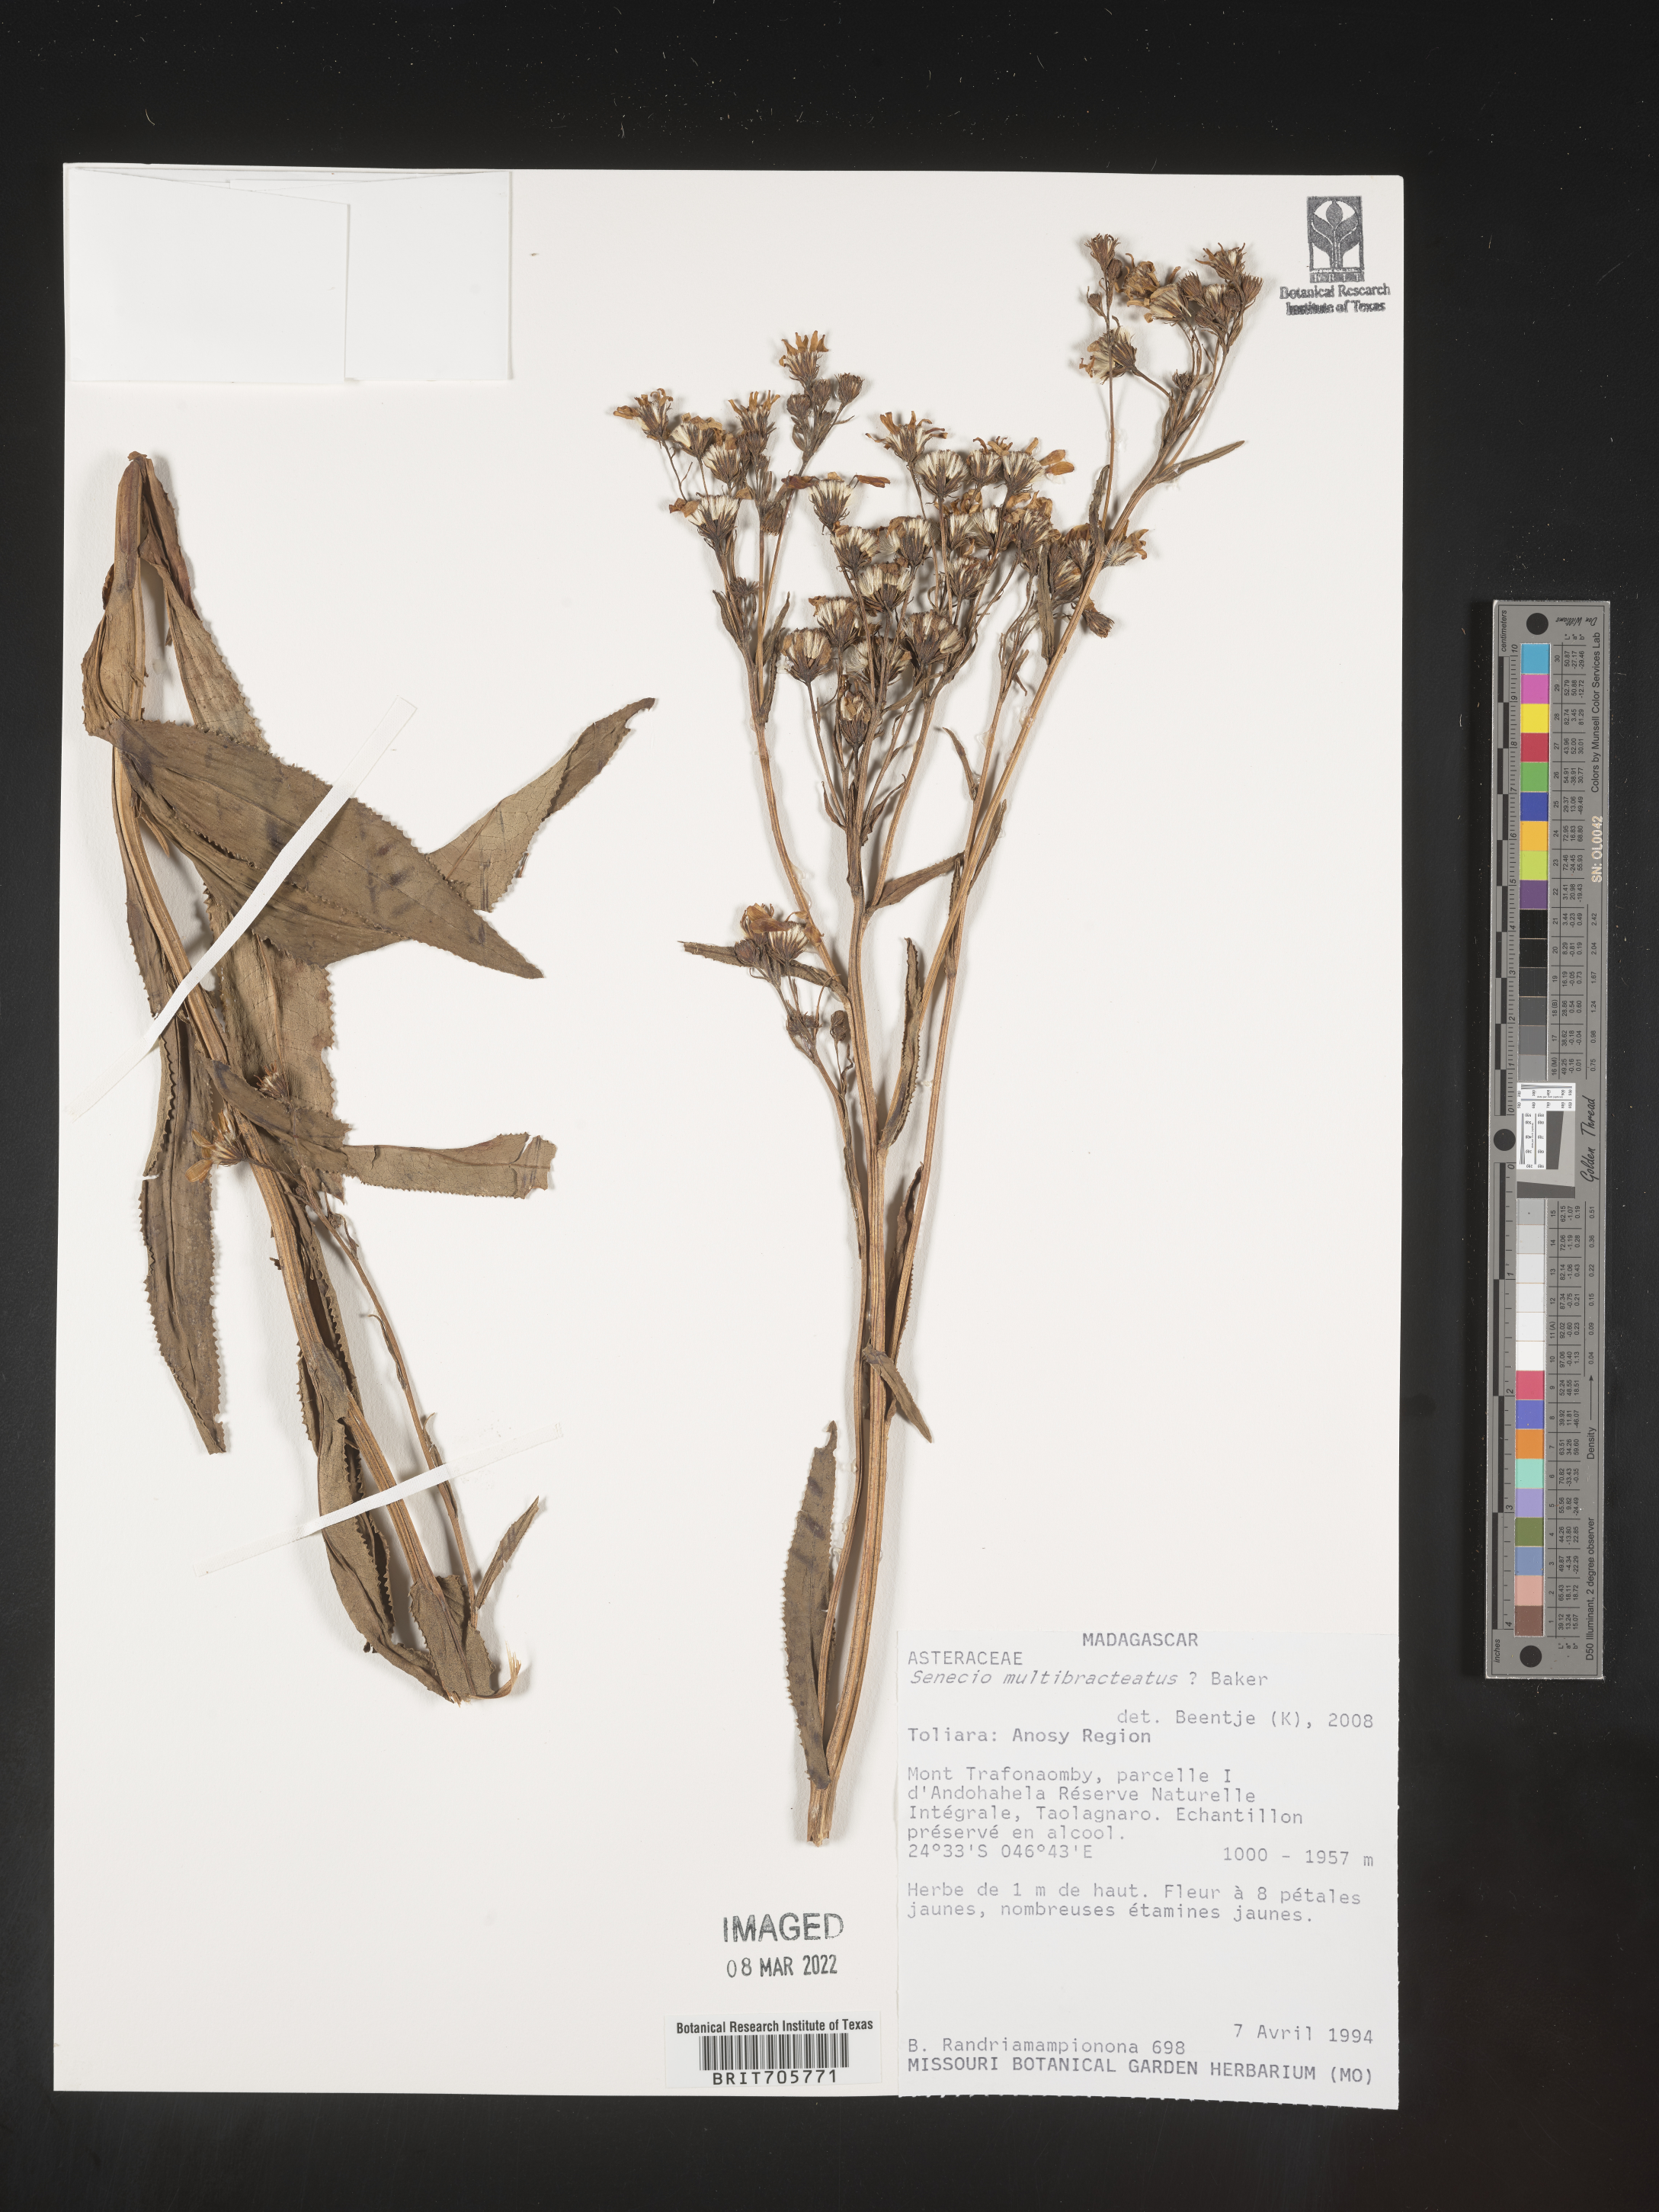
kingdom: Plantae
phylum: Tracheophyta
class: Magnoliopsida
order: Asterales
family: Asteraceae
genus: Senecio
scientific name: Senecio
